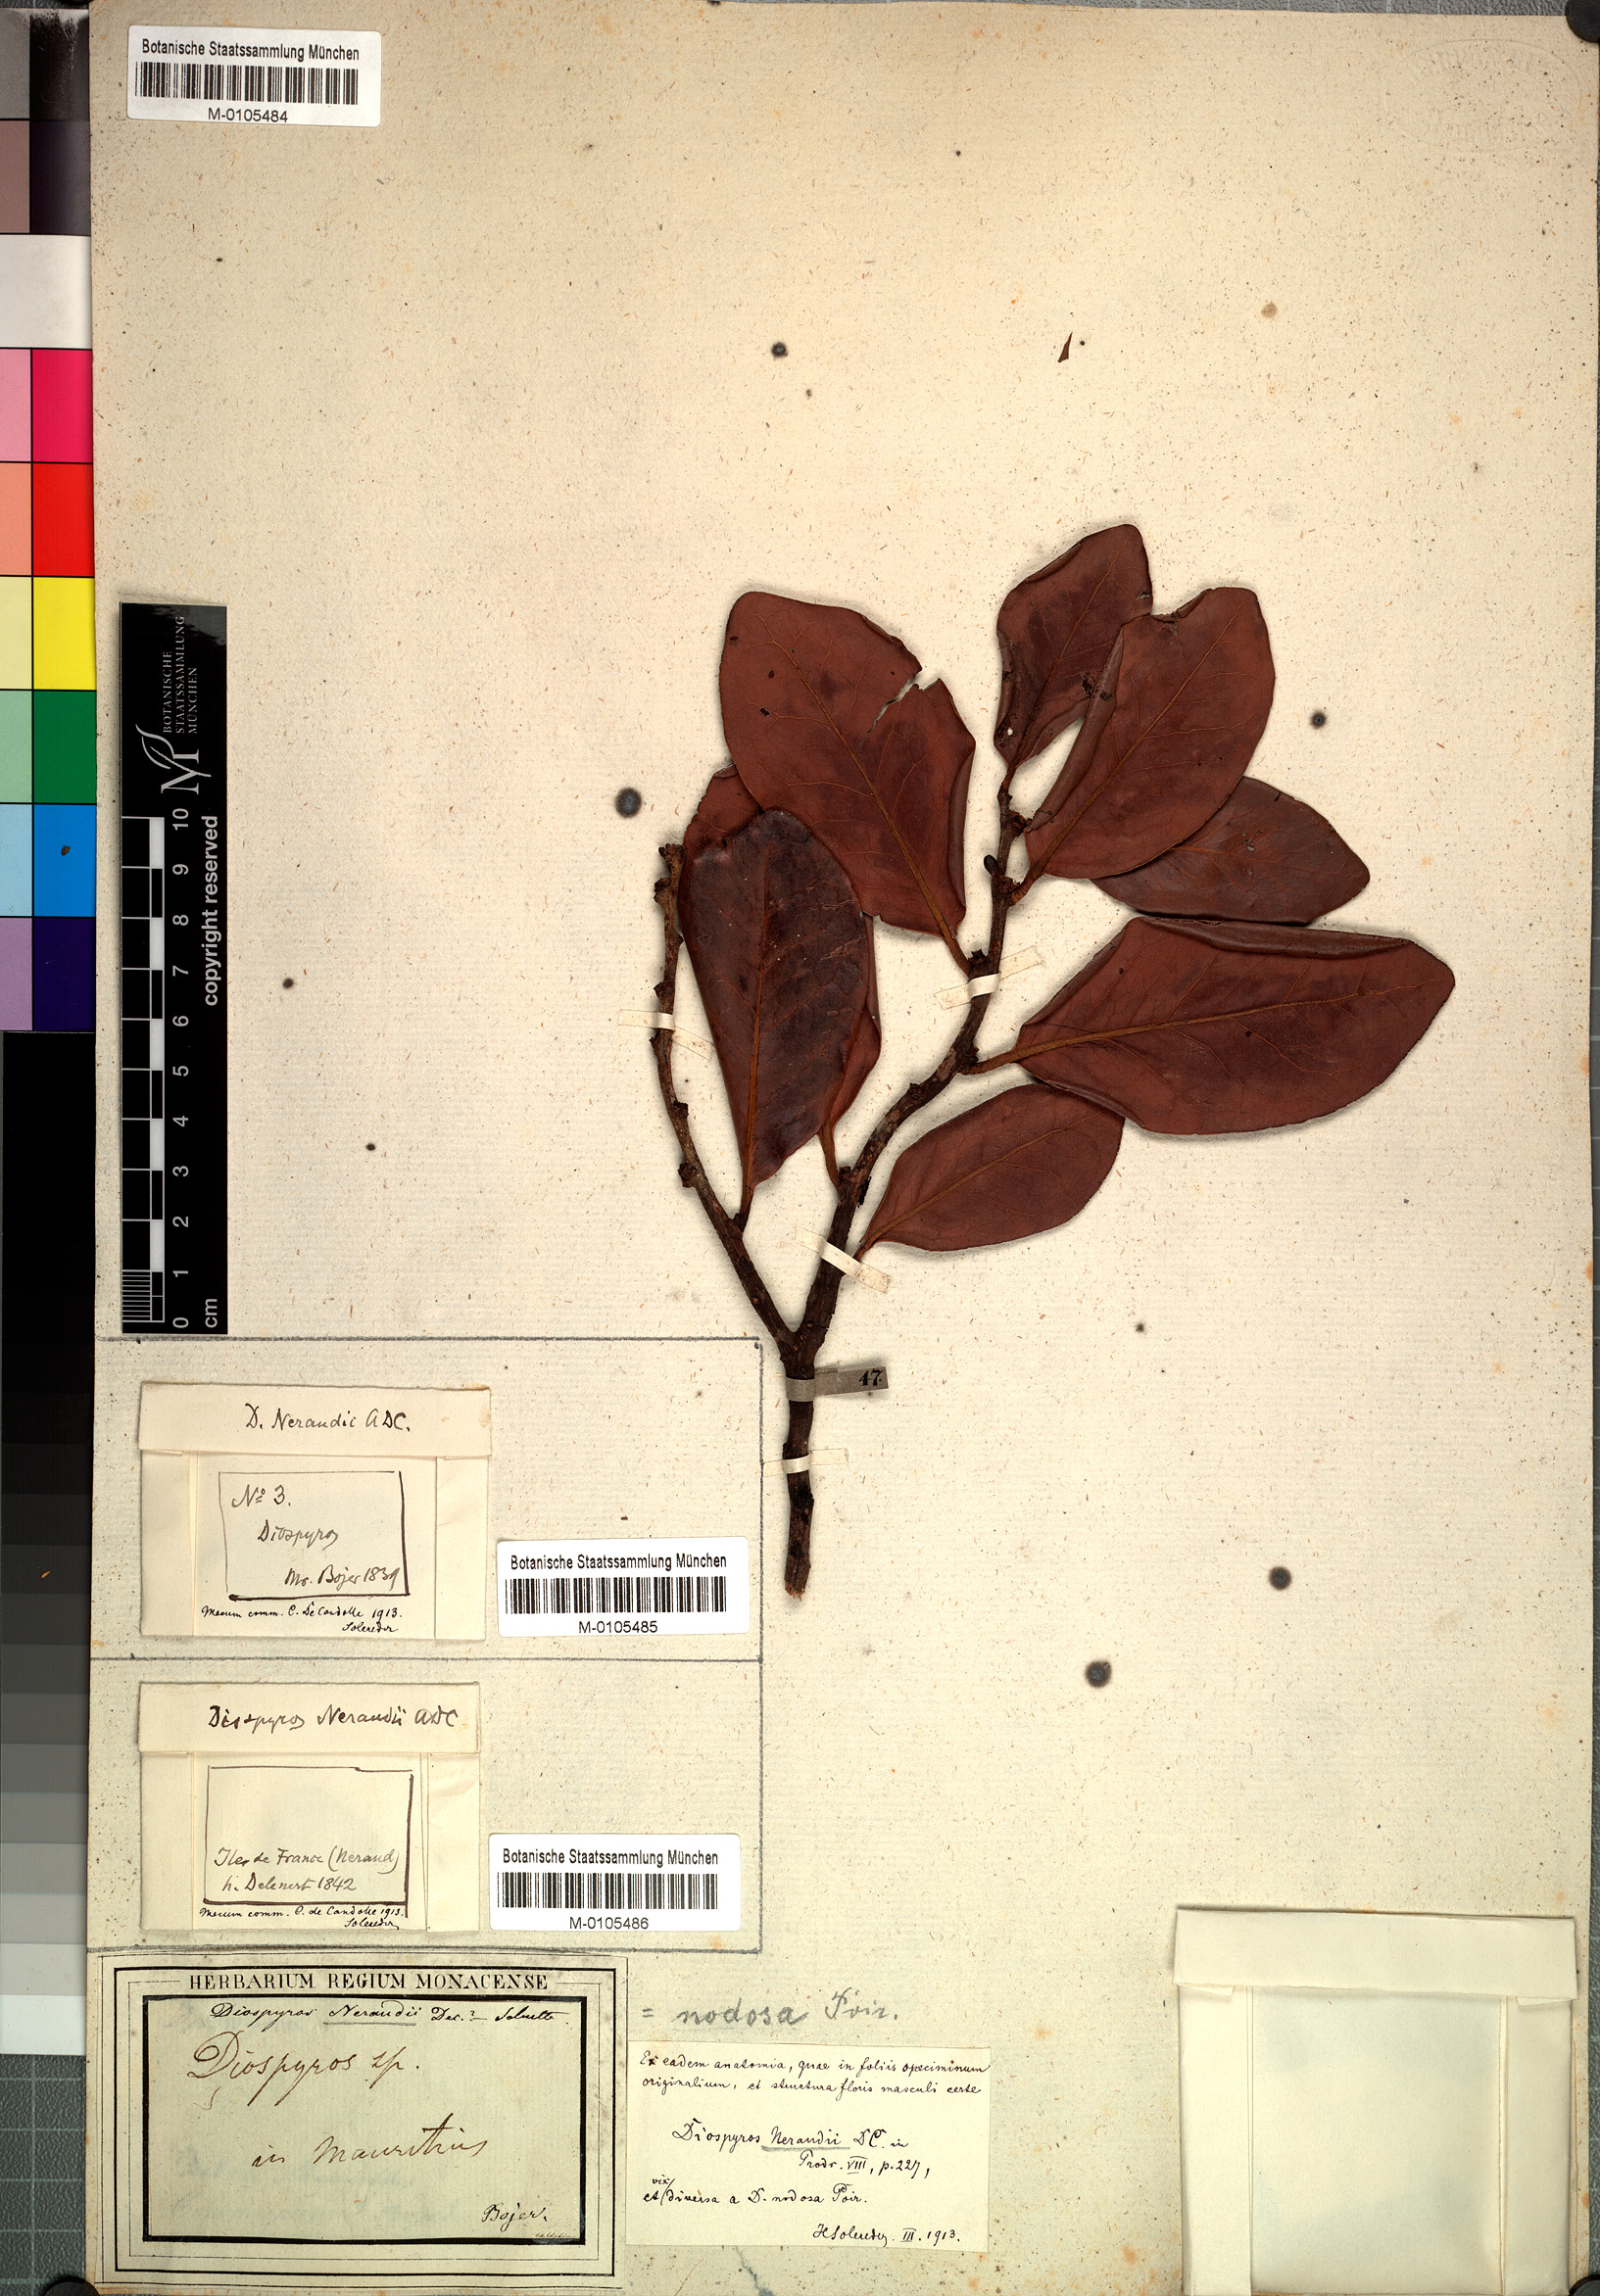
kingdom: Plantae
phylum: Tracheophyta
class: Magnoliopsida
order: Ericales
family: Ebenaceae
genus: Diospyros
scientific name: Diospyros neraudii
